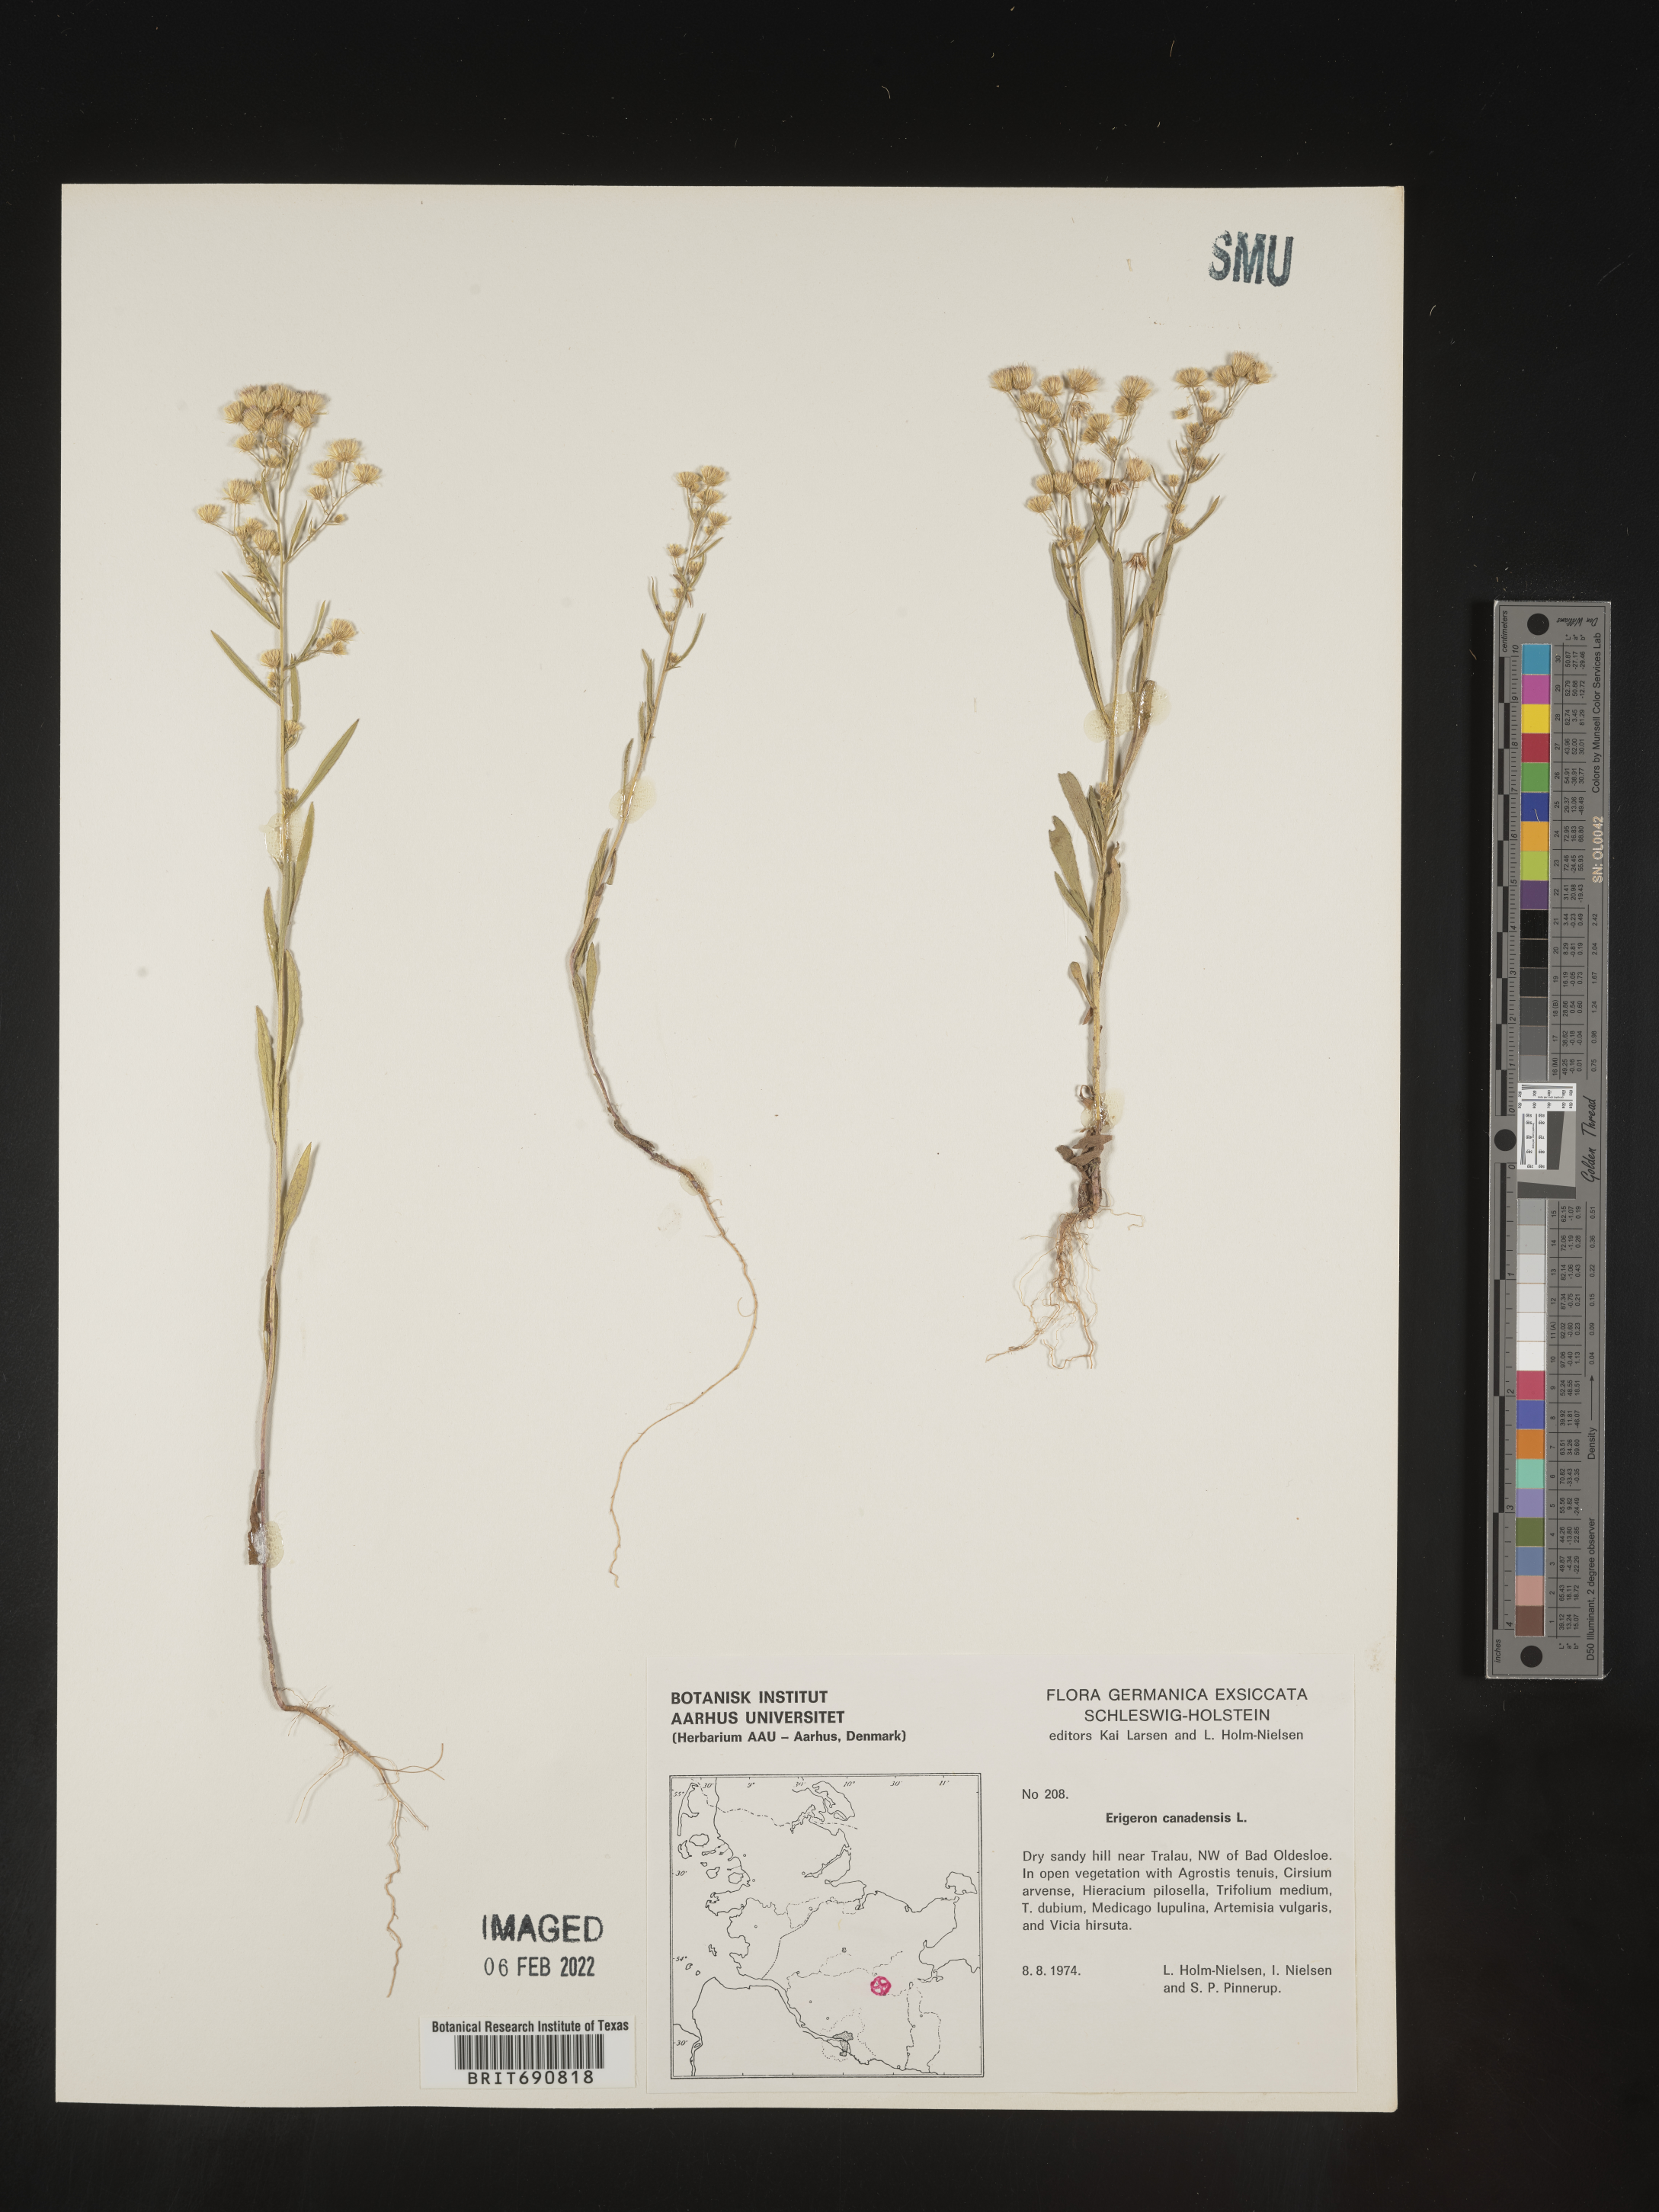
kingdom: Plantae
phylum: Tracheophyta
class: Magnoliopsida
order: Asterales
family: Asteraceae
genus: Conyza
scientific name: Conyza
